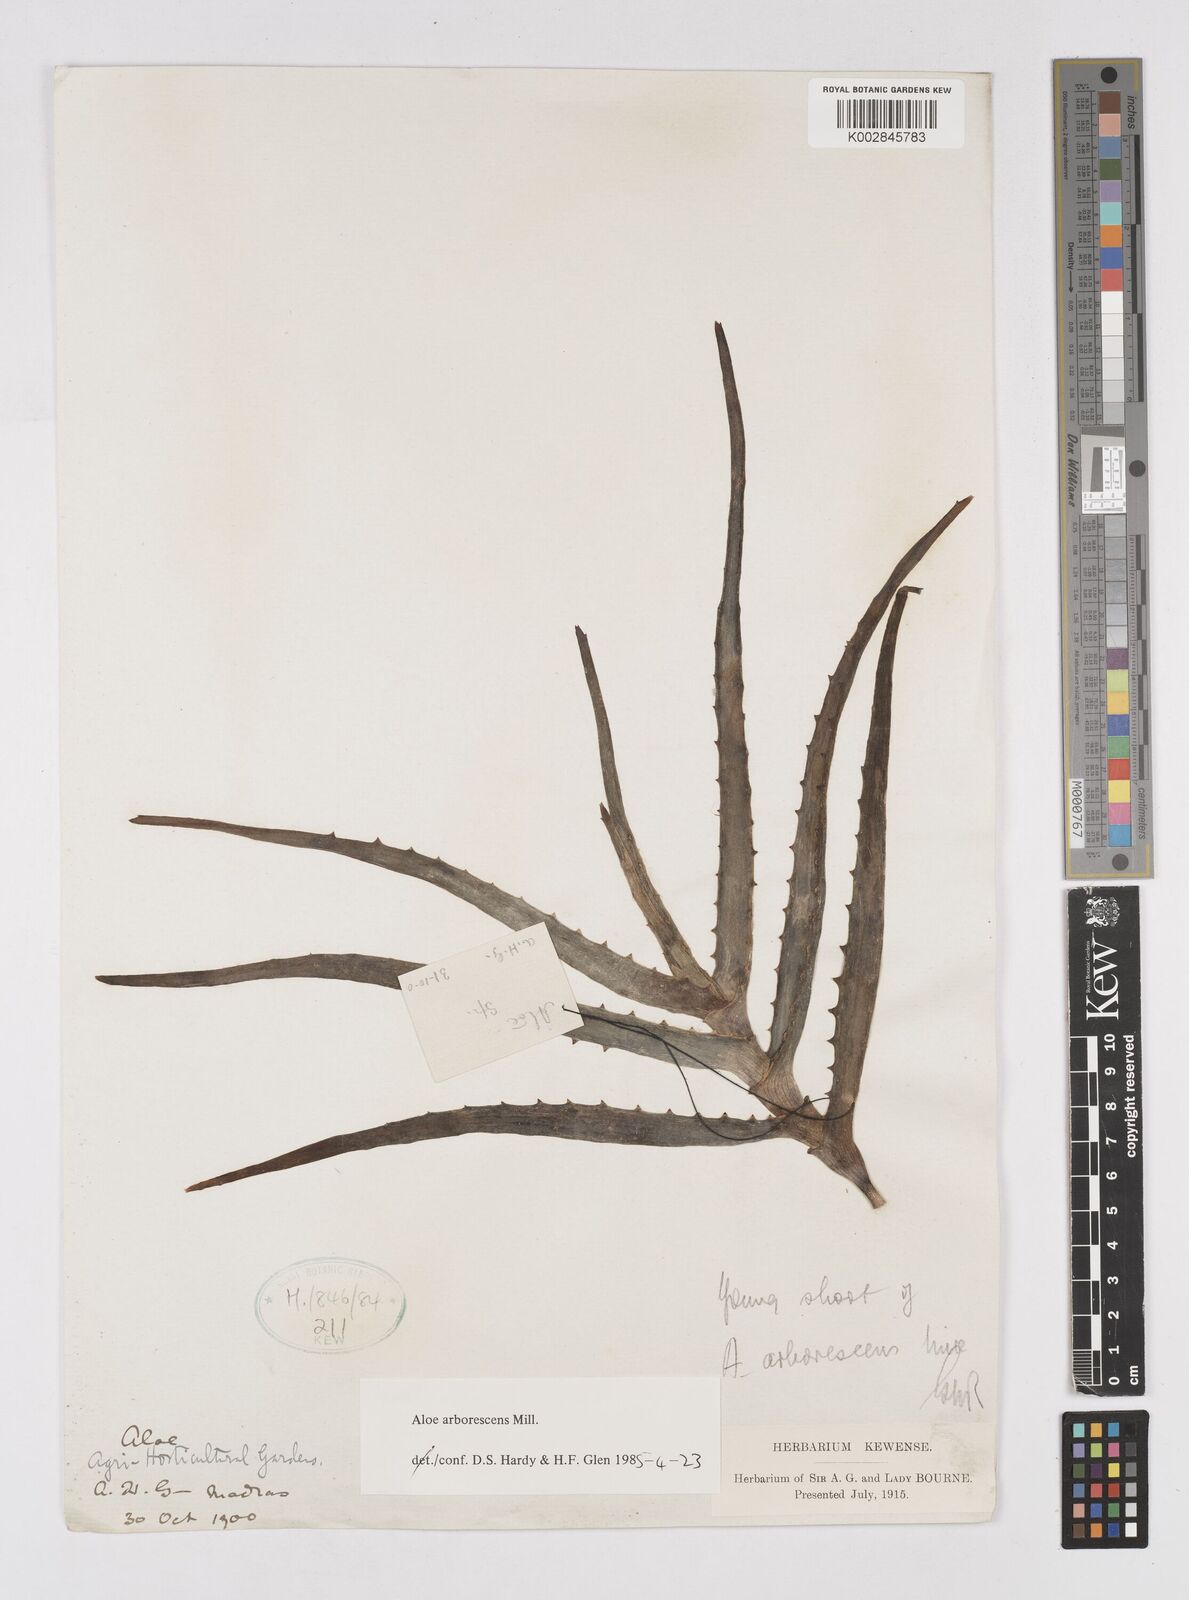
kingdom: Plantae
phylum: Tracheophyta
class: Liliopsida
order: Asparagales
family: Asphodelaceae
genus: Aloe
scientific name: Aloe arborescens
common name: Candelabra aloe
